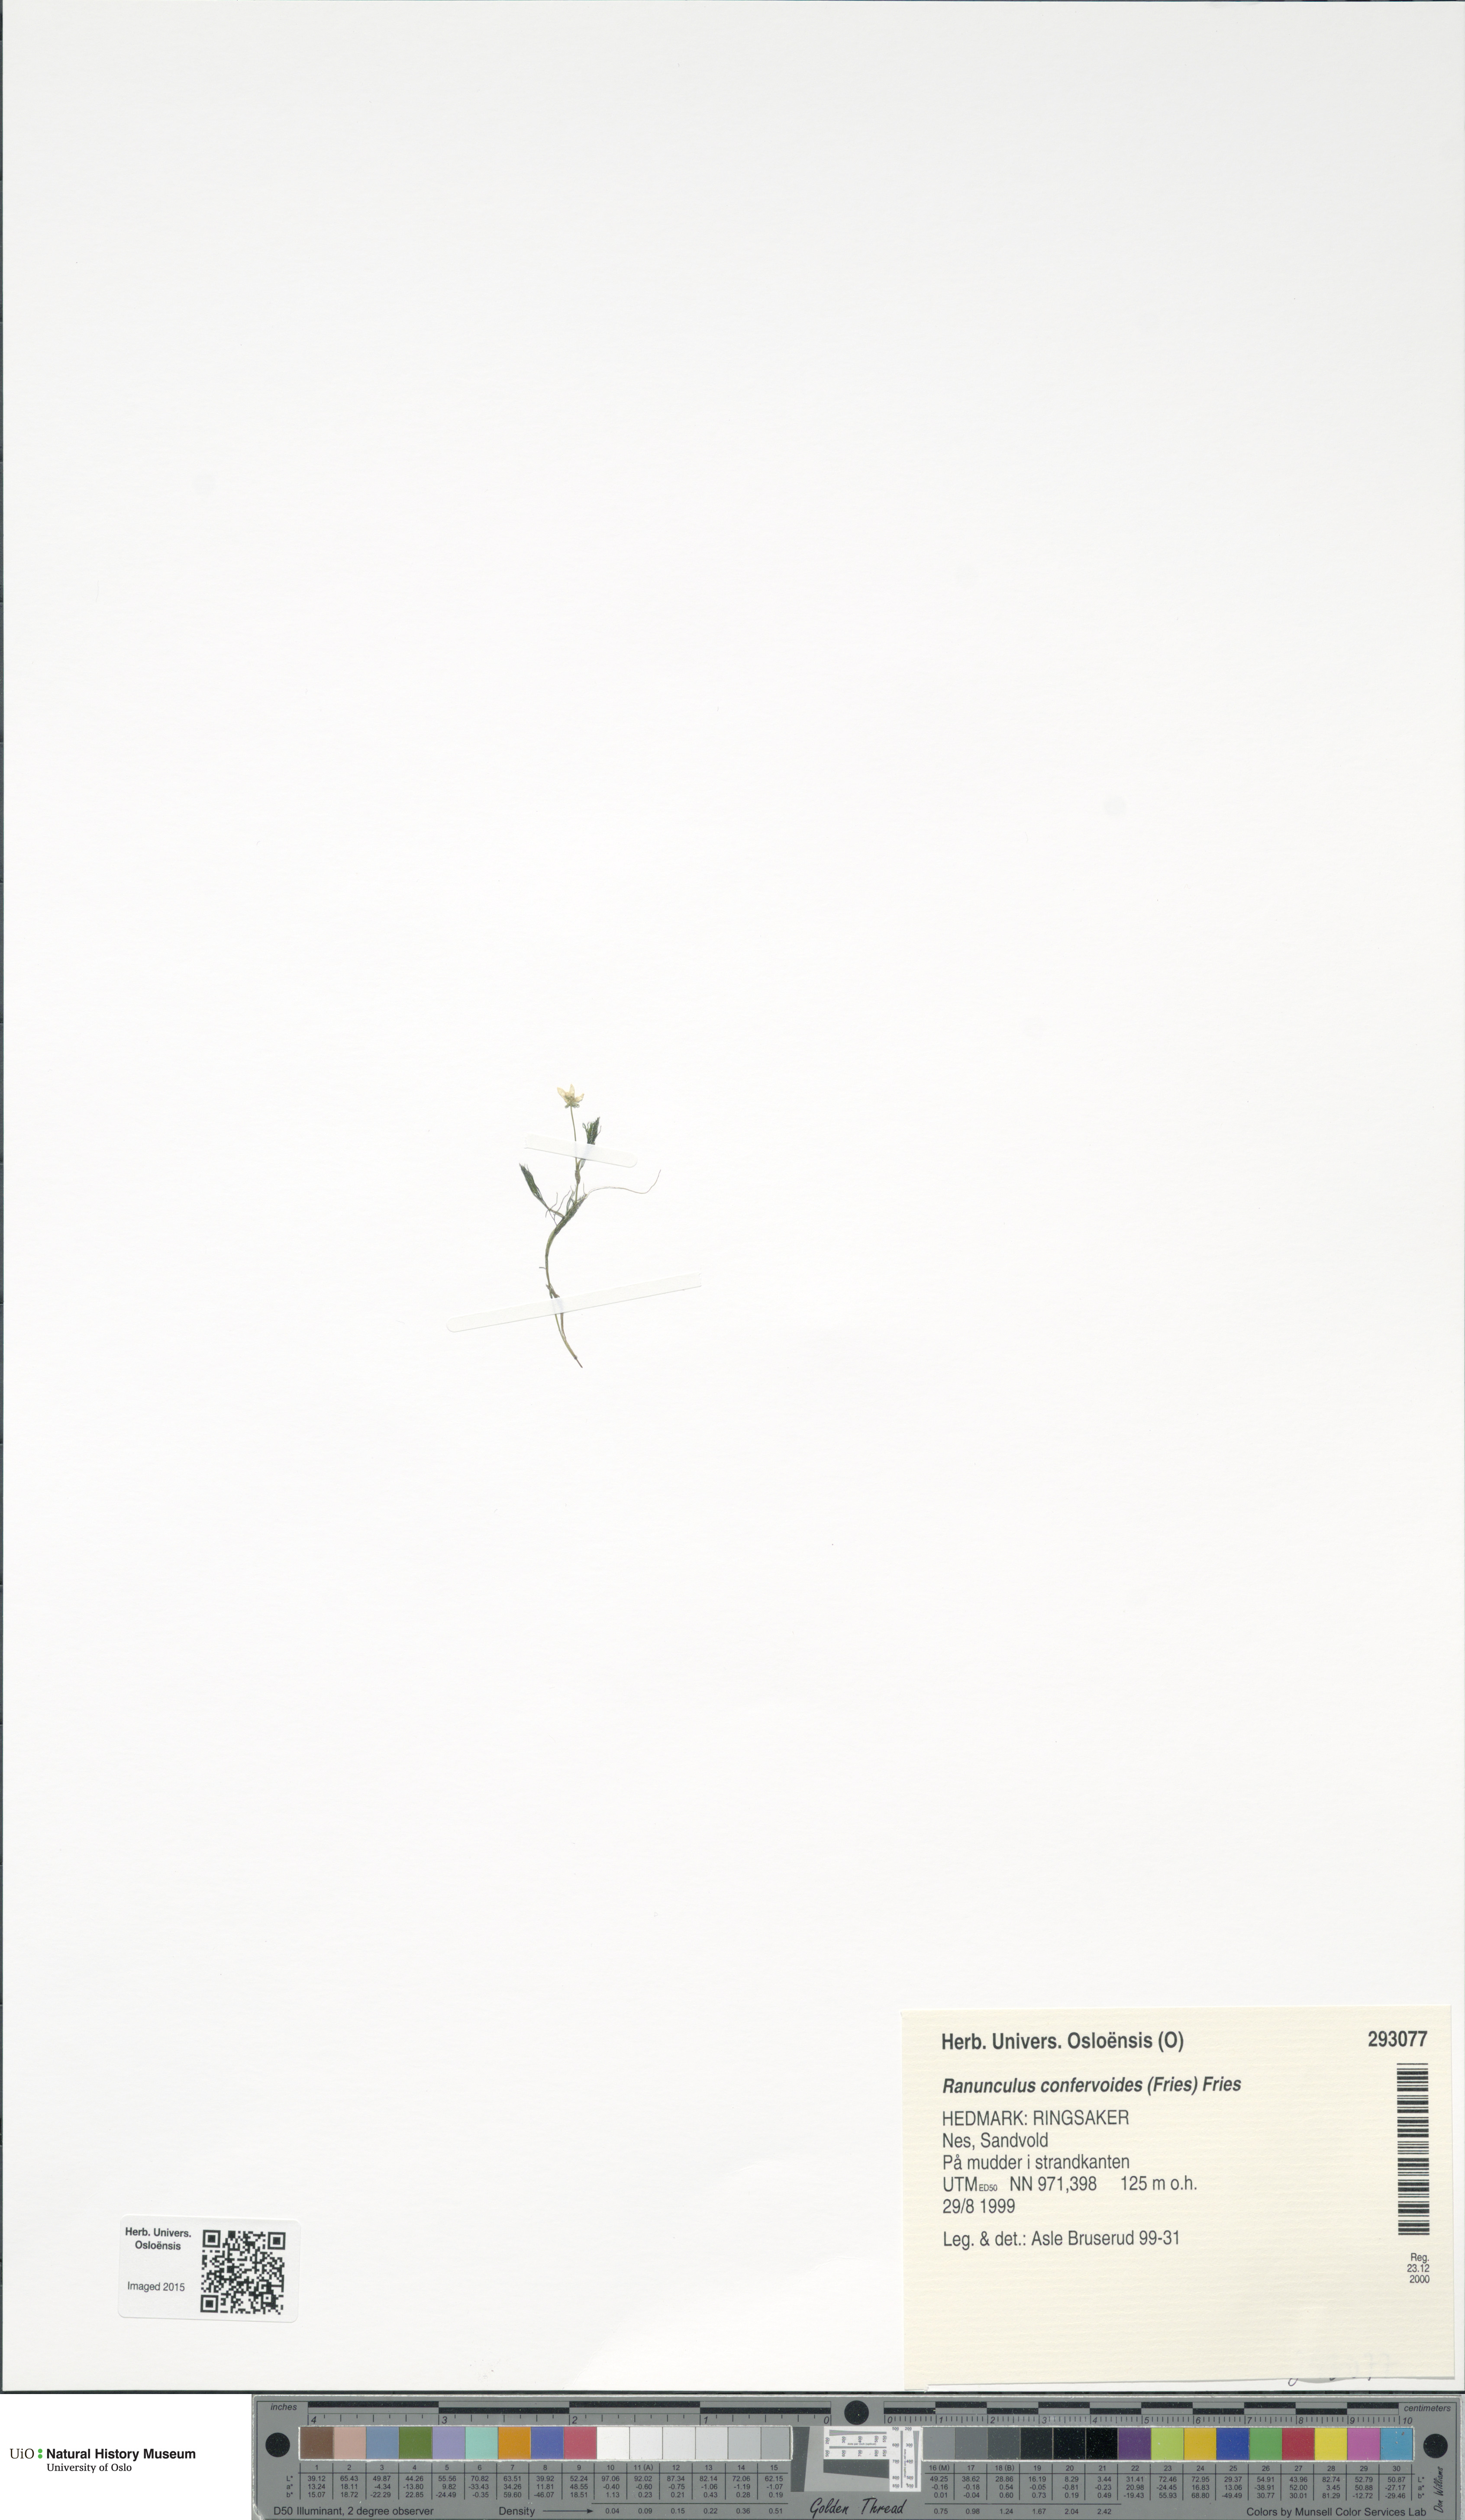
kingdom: Plantae
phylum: Tracheophyta
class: Magnoliopsida
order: Ranunculales
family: Ranunculaceae
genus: Ranunculus
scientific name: Ranunculus confervoides
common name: Delicate buttercup
